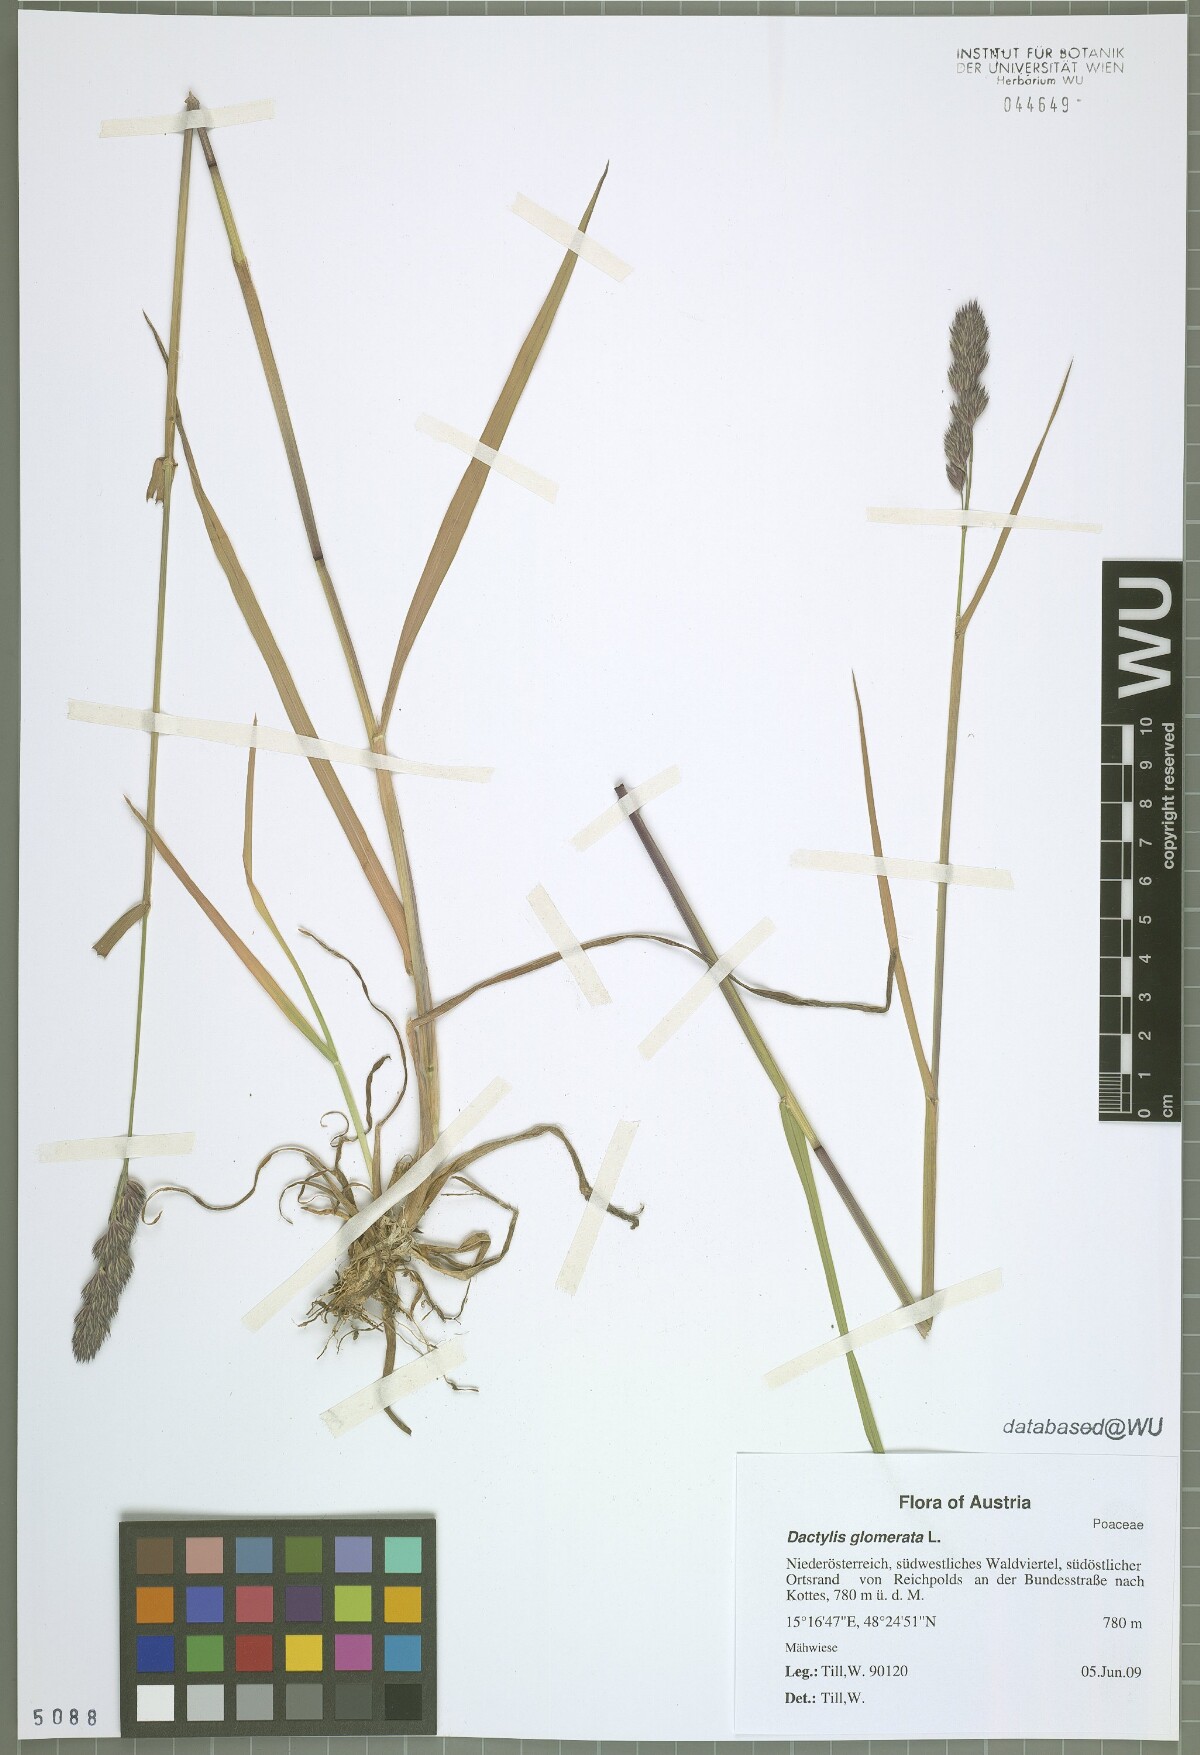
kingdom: Plantae
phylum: Tracheophyta
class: Liliopsida
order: Poales
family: Poaceae
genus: Dactylis
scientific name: Dactylis glomerata
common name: Orchardgrass
